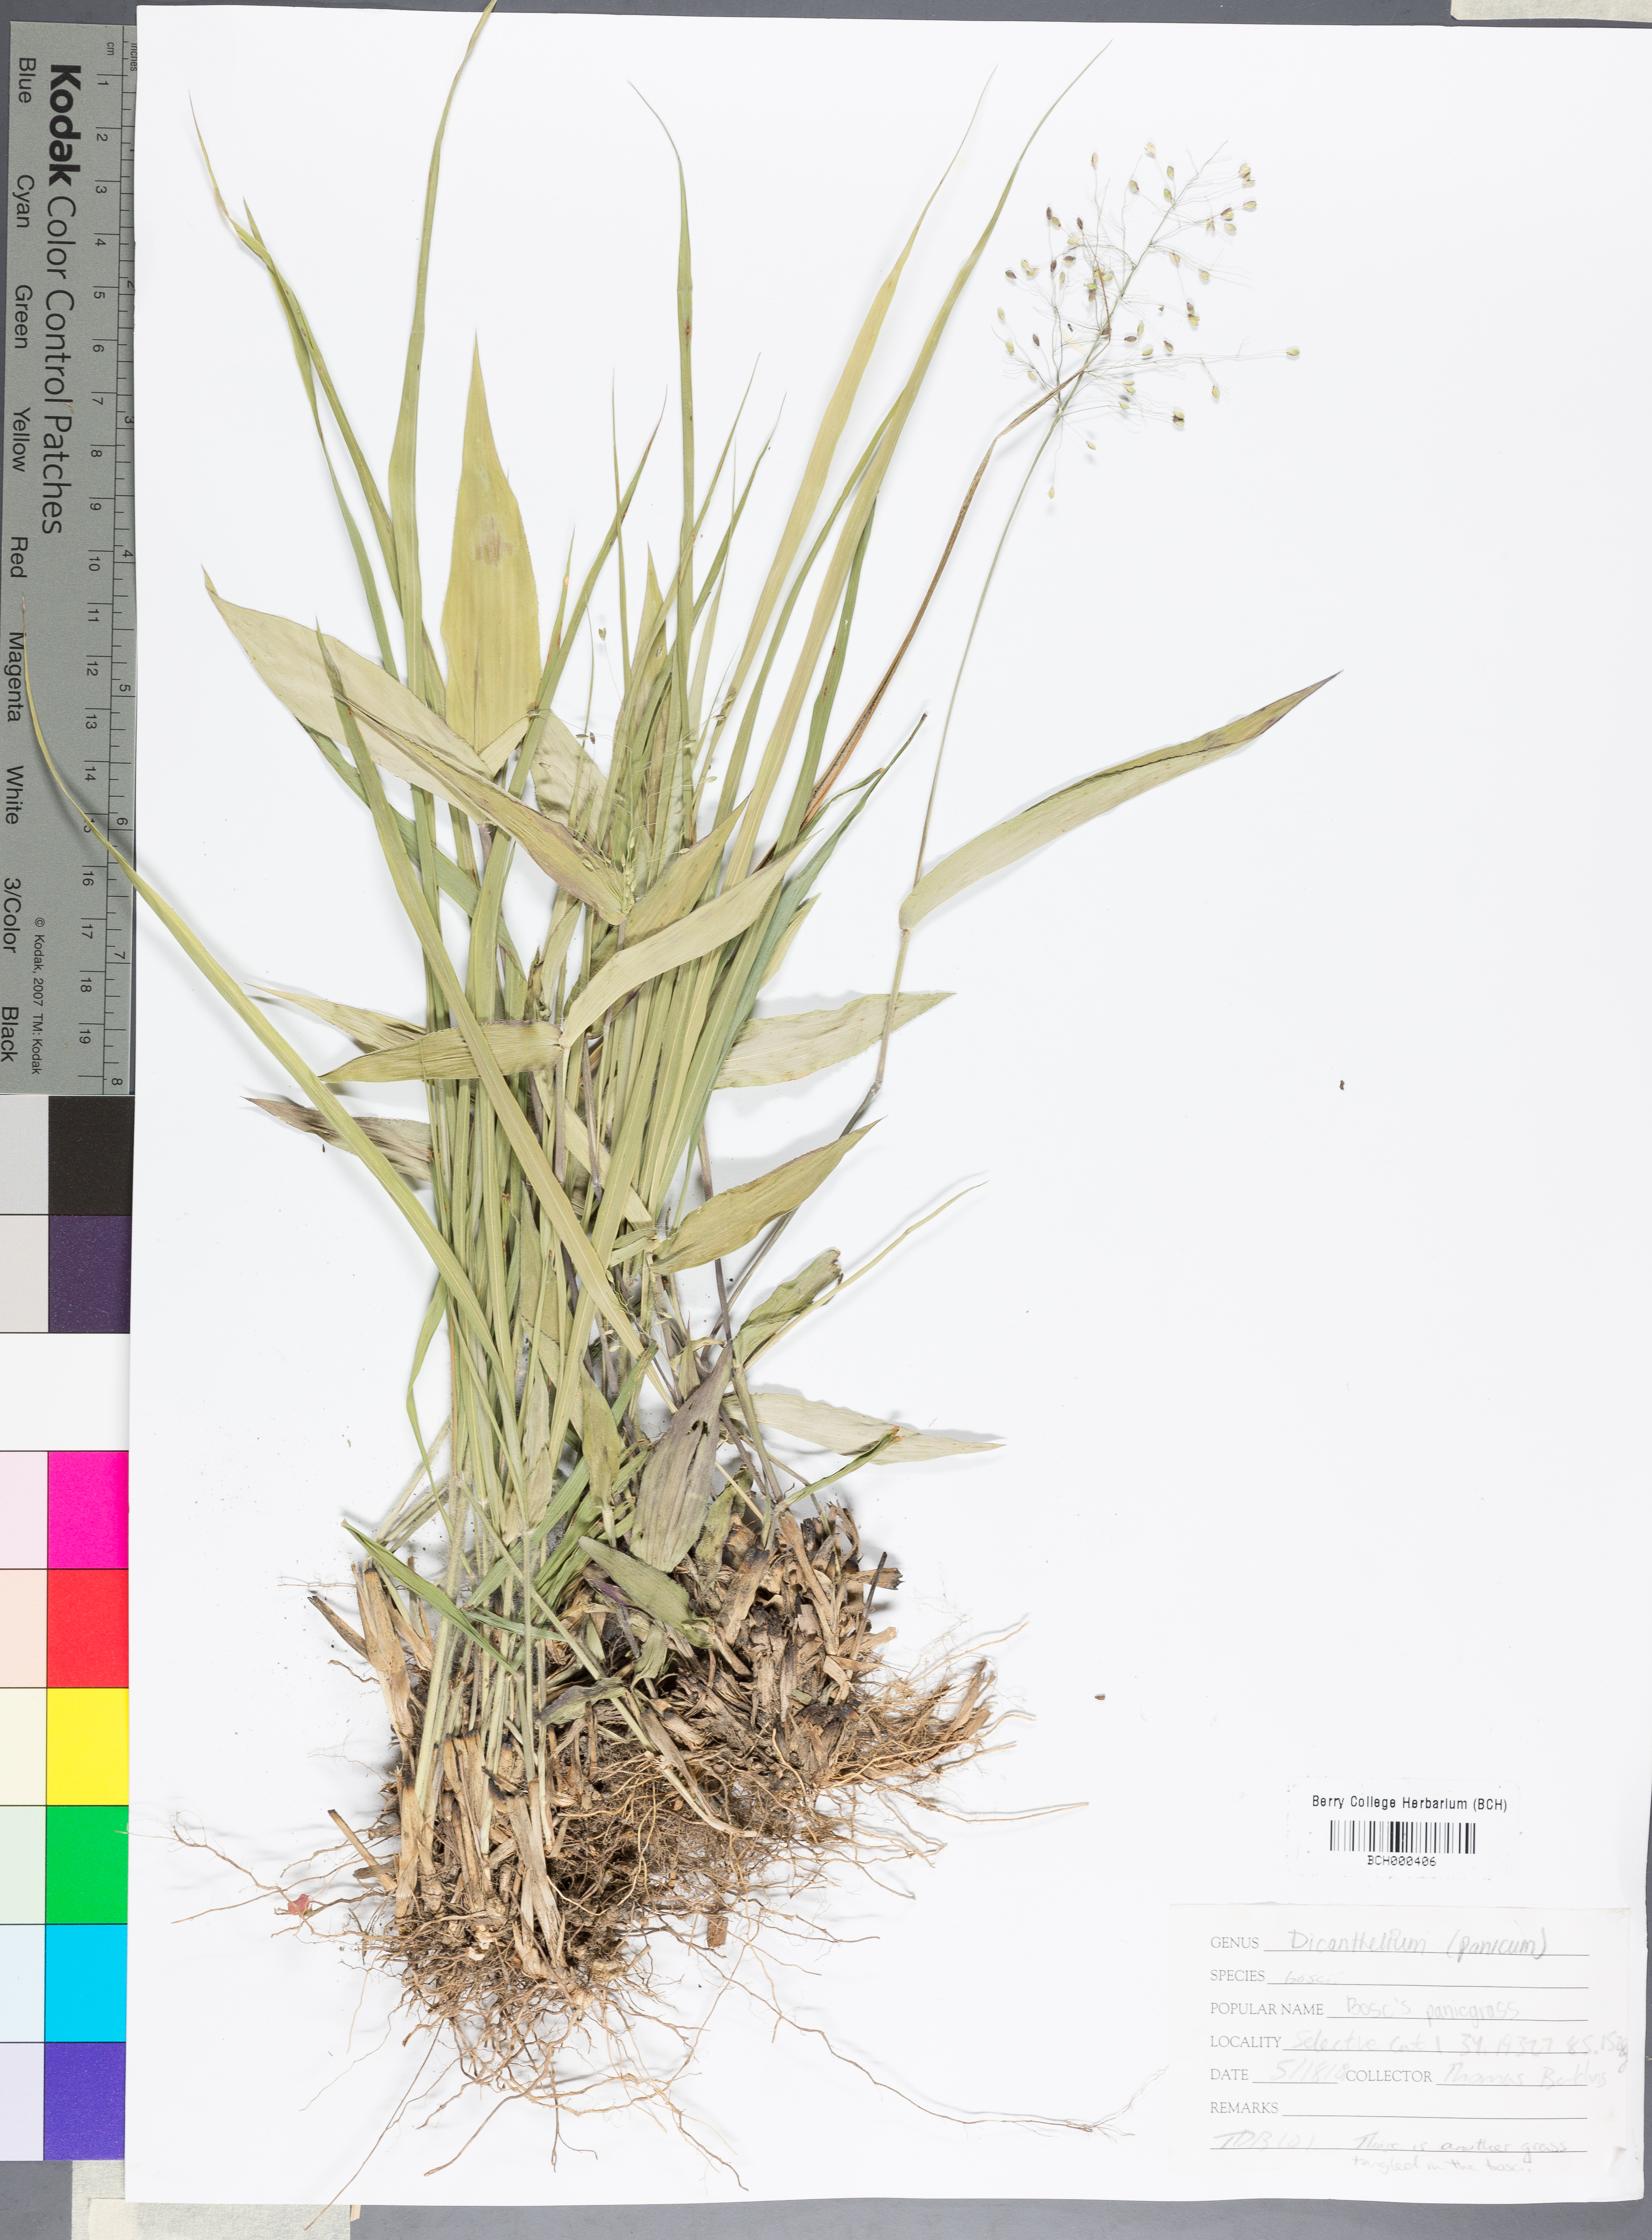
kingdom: Plantae
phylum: Tracheophyta
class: Liliopsida
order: Poales
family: Poaceae
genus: Dichanthelium
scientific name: Dichanthelium boscii
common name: Bosc's panic grass
